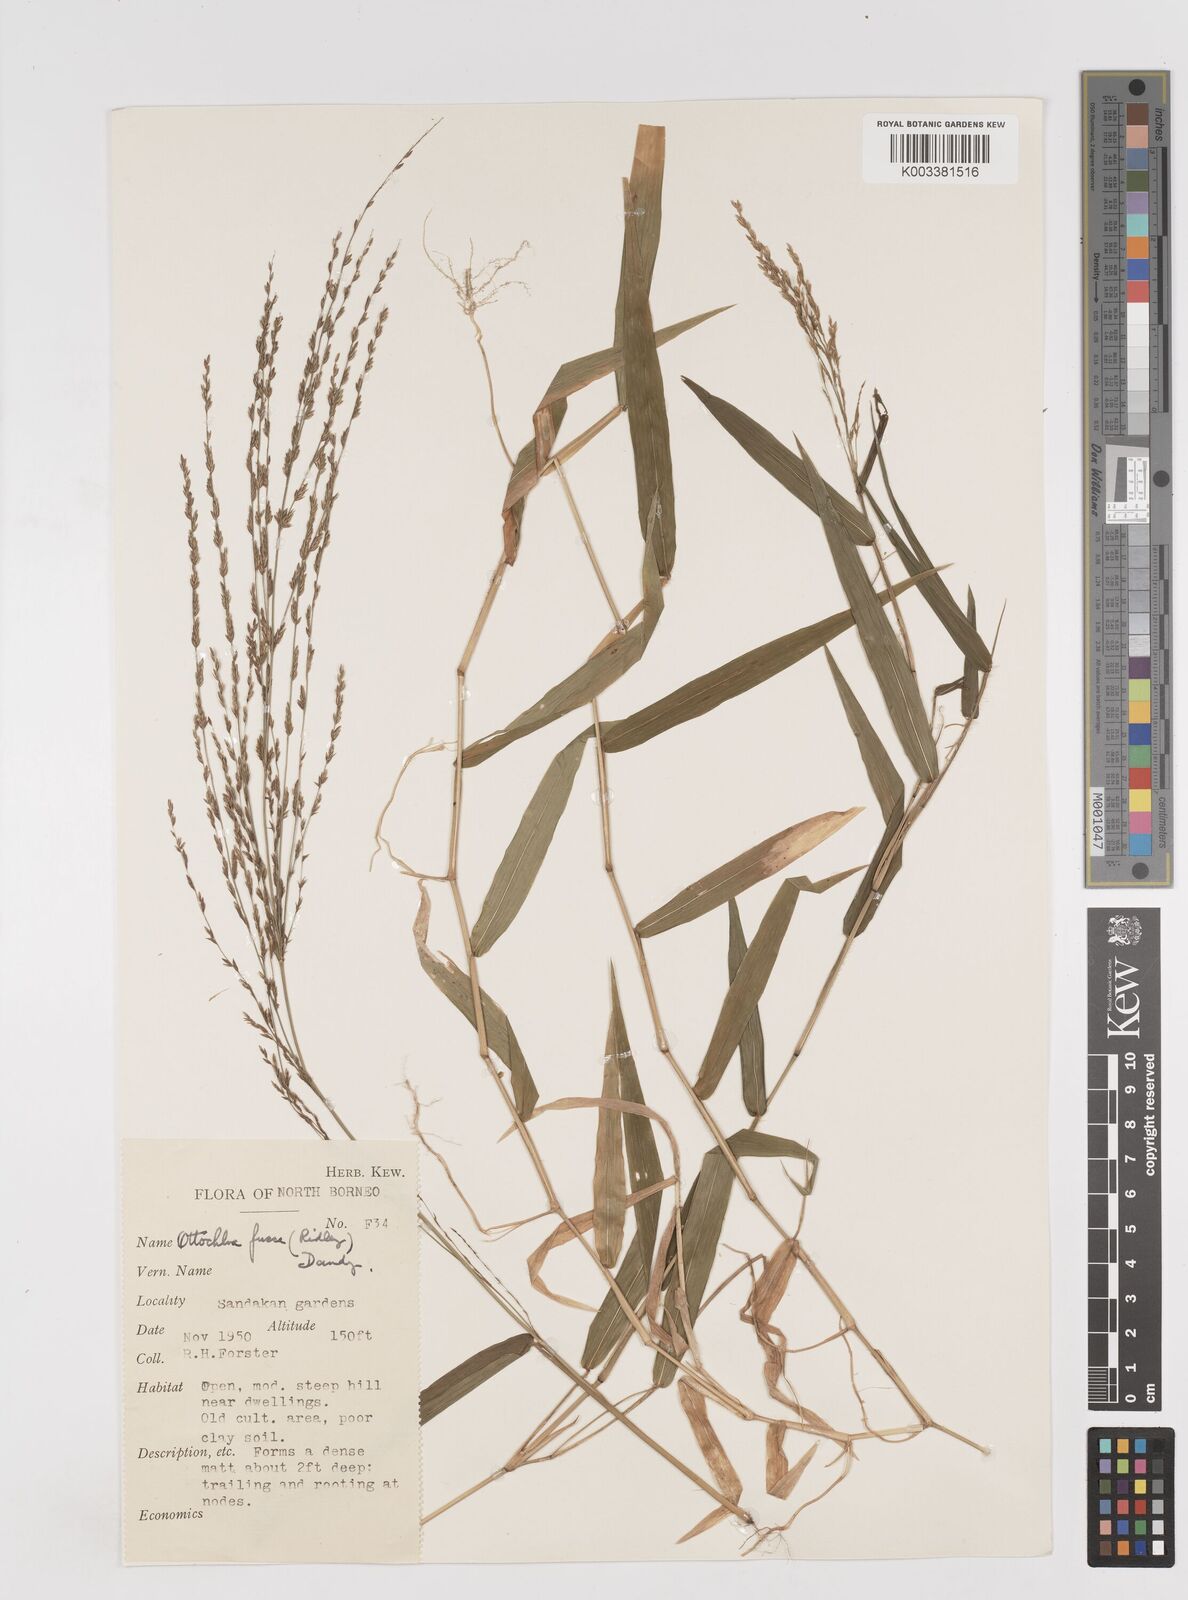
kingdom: Plantae
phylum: Tracheophyta
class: Liliopsida
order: Poales
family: Poaceae
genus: Ottochloa
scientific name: Ottochloa nodosa
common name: Slender-panic grass
